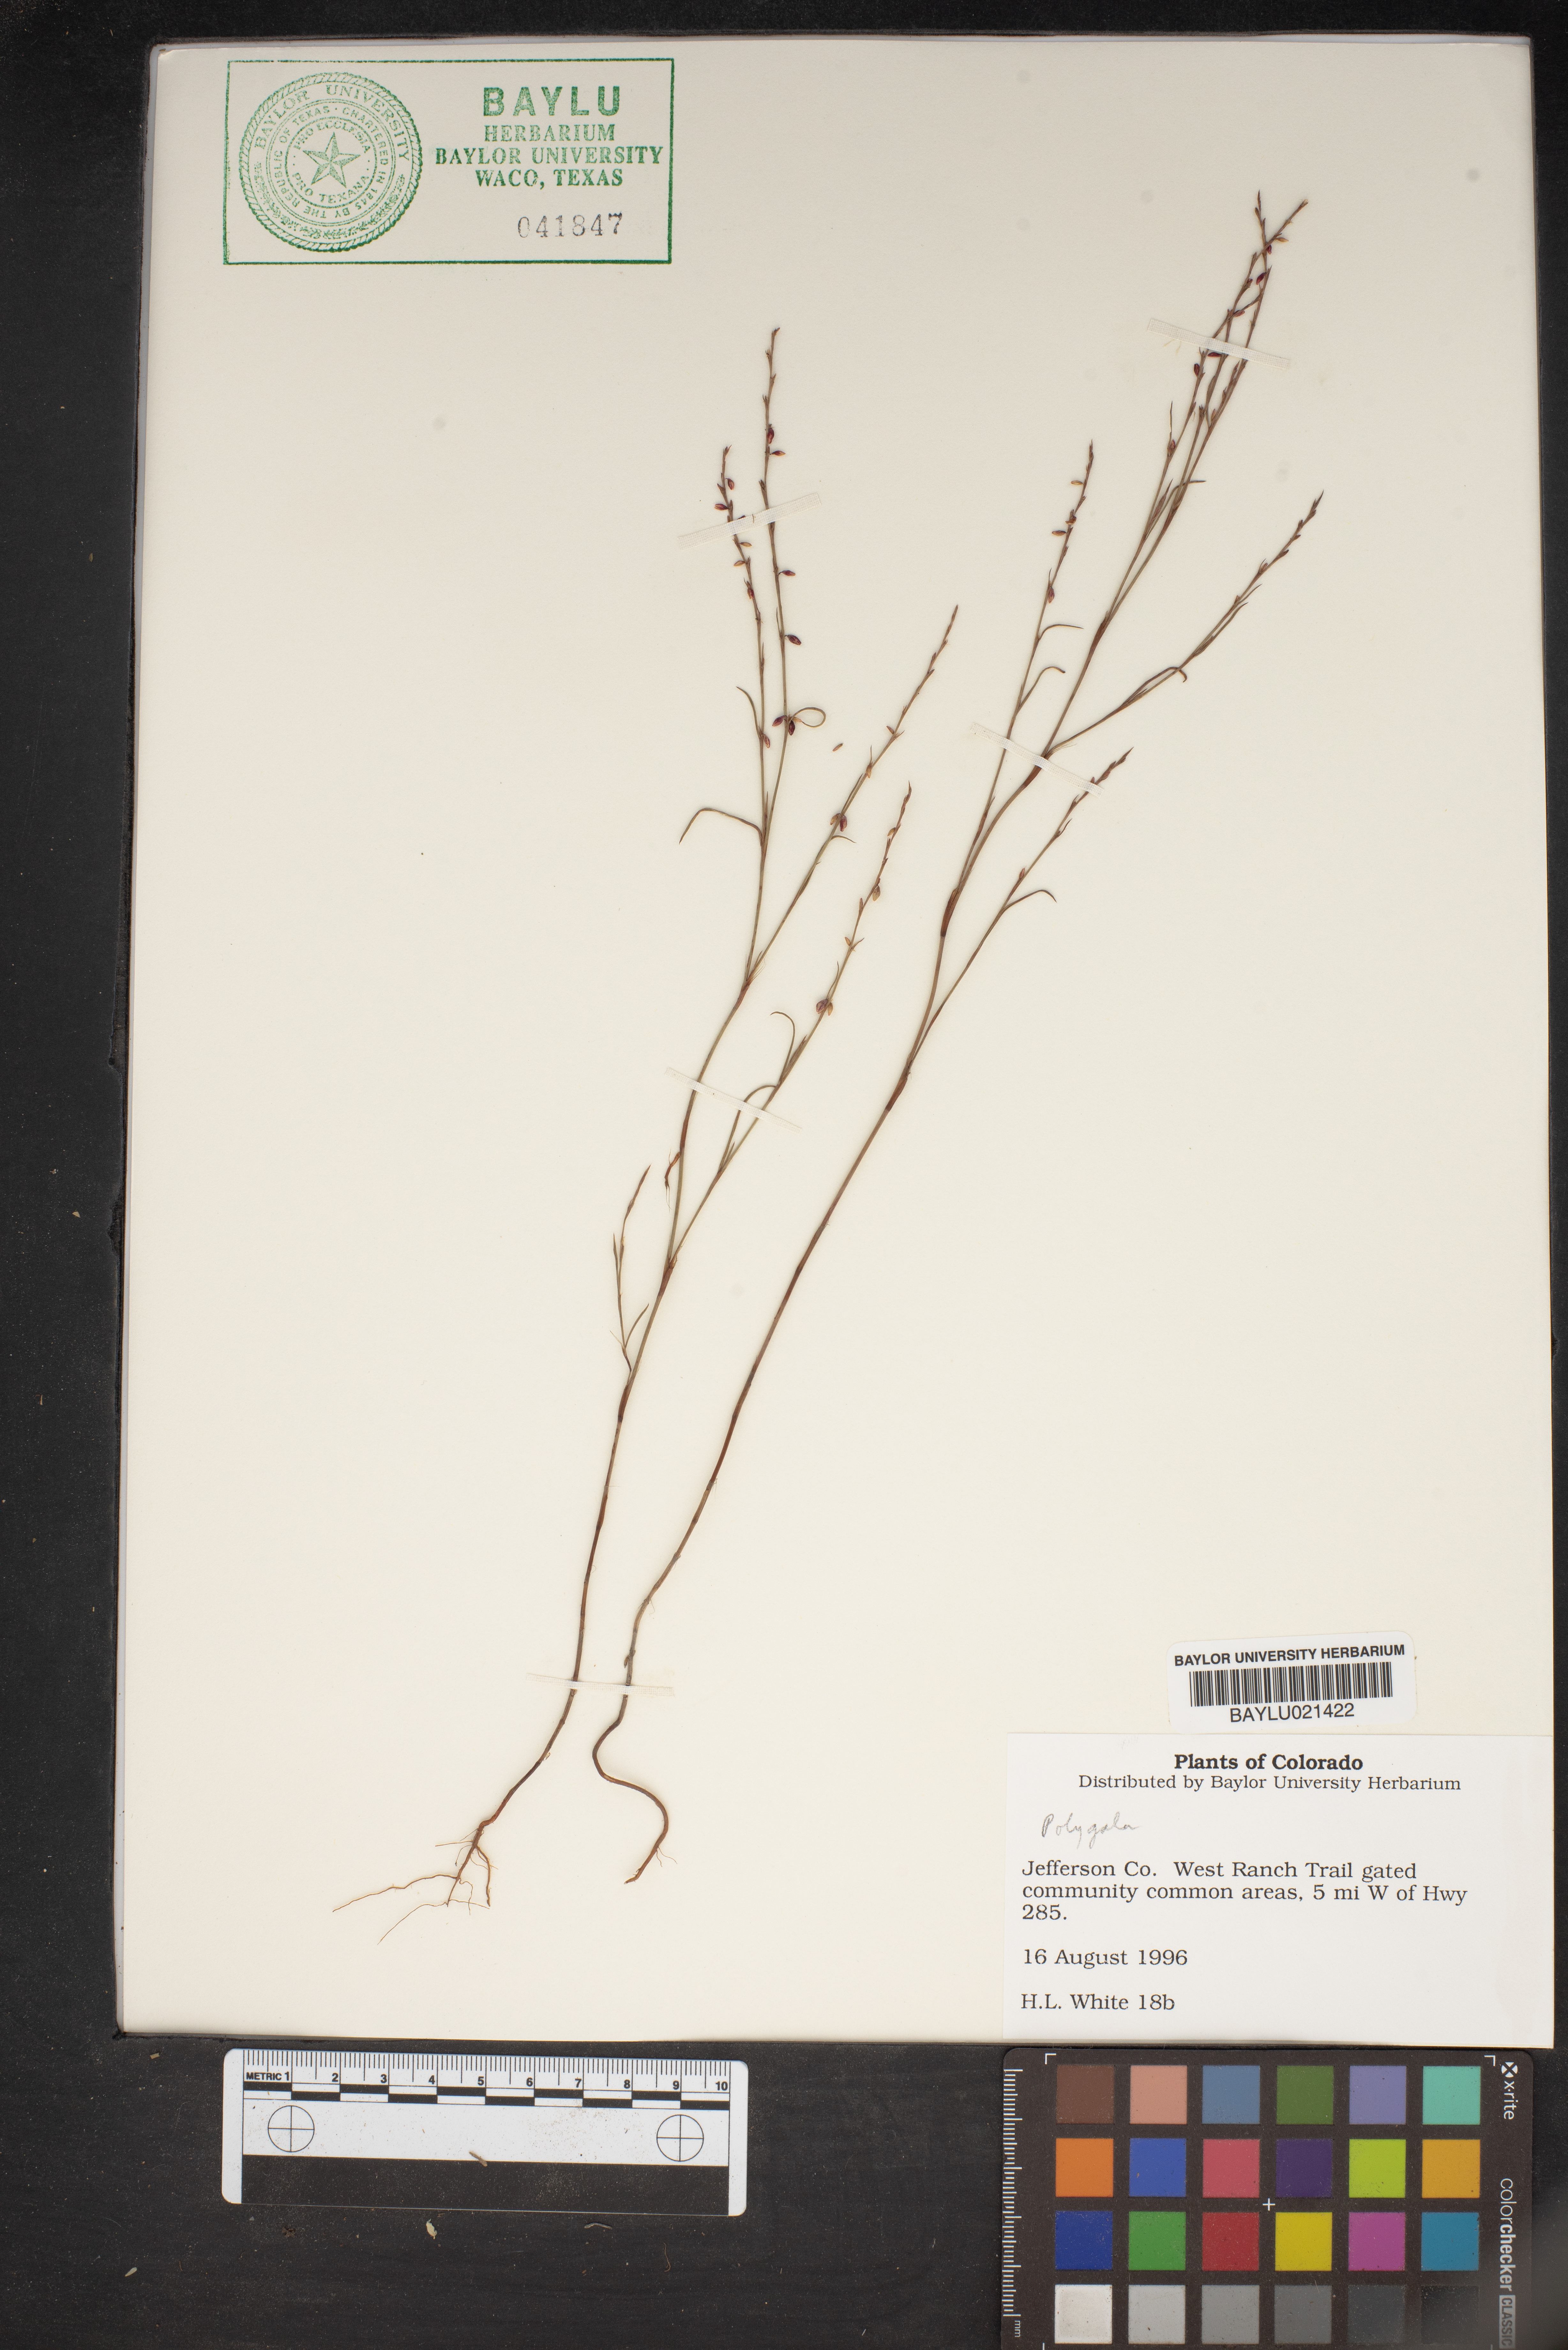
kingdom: Plantae
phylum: Tracheophyta
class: Magnoliopsida
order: Fabales
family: Polygalaceae
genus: Polygala
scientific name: Polygala
